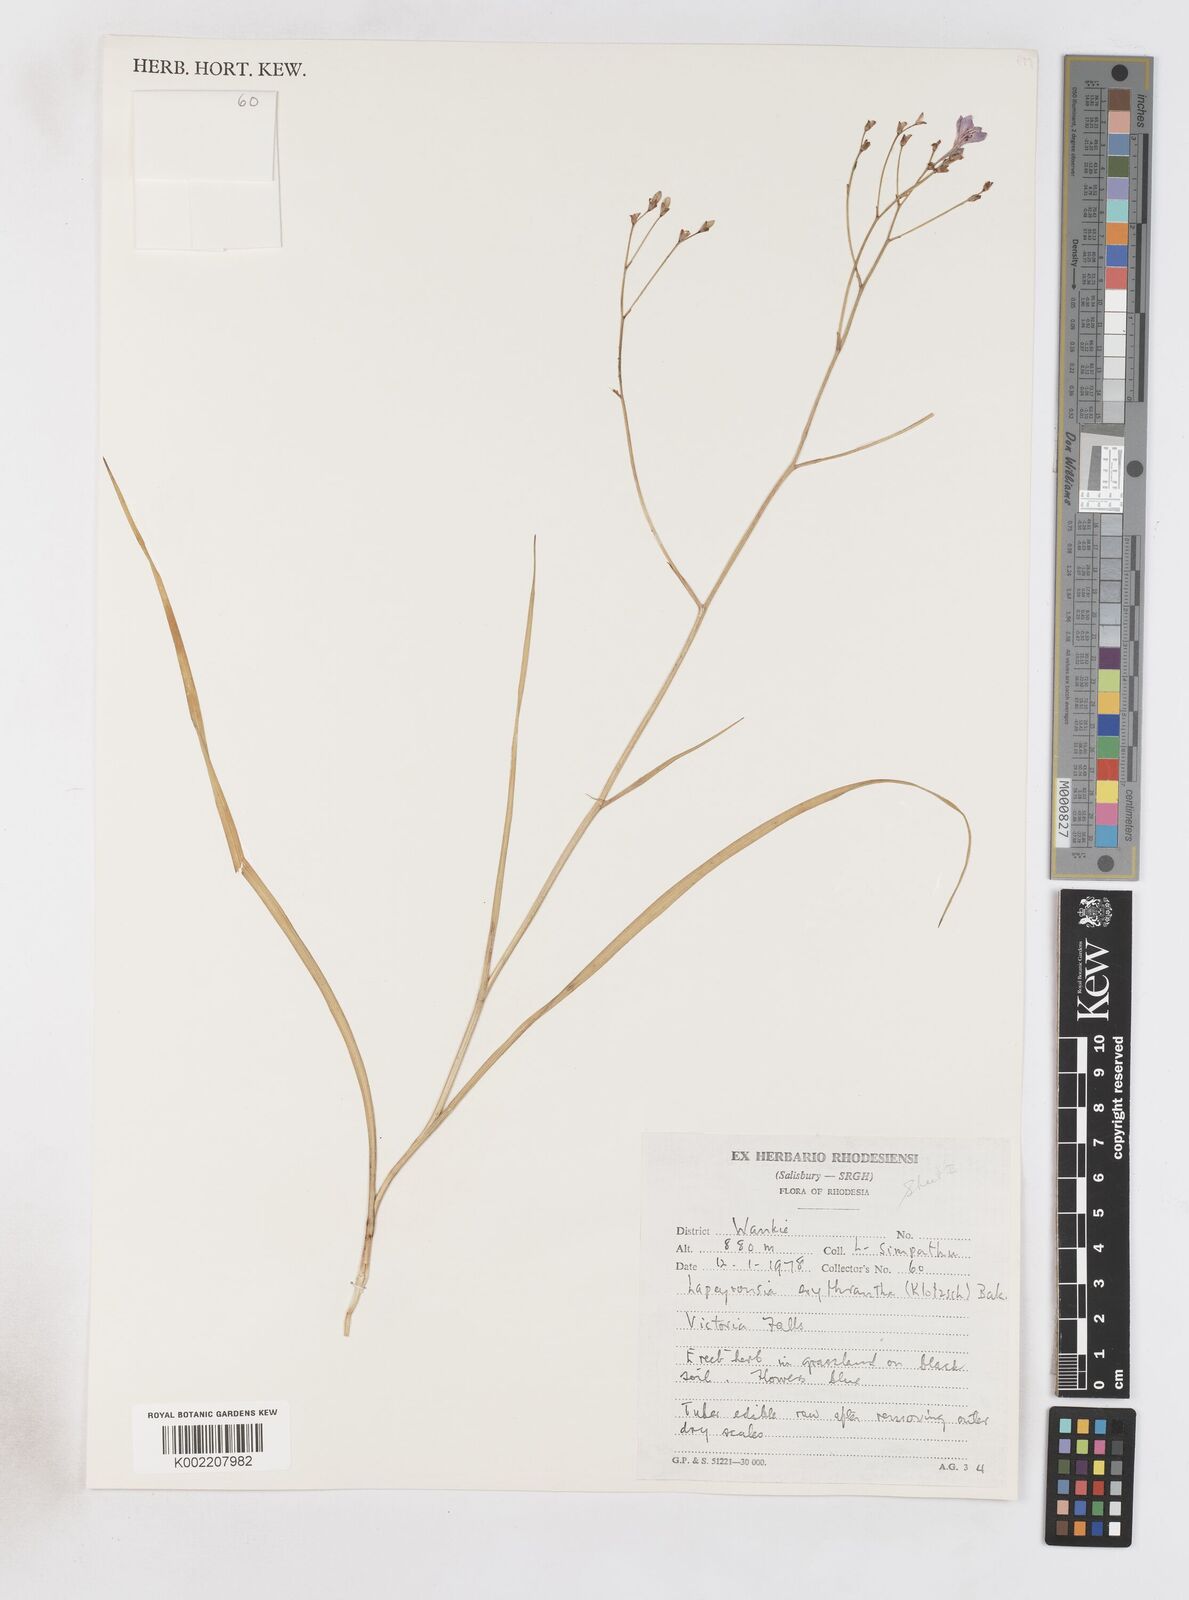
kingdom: Plantae
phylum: Tracheophyta
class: Liliopsida
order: Asparagales
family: Iridaceae
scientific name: Iridaceae
